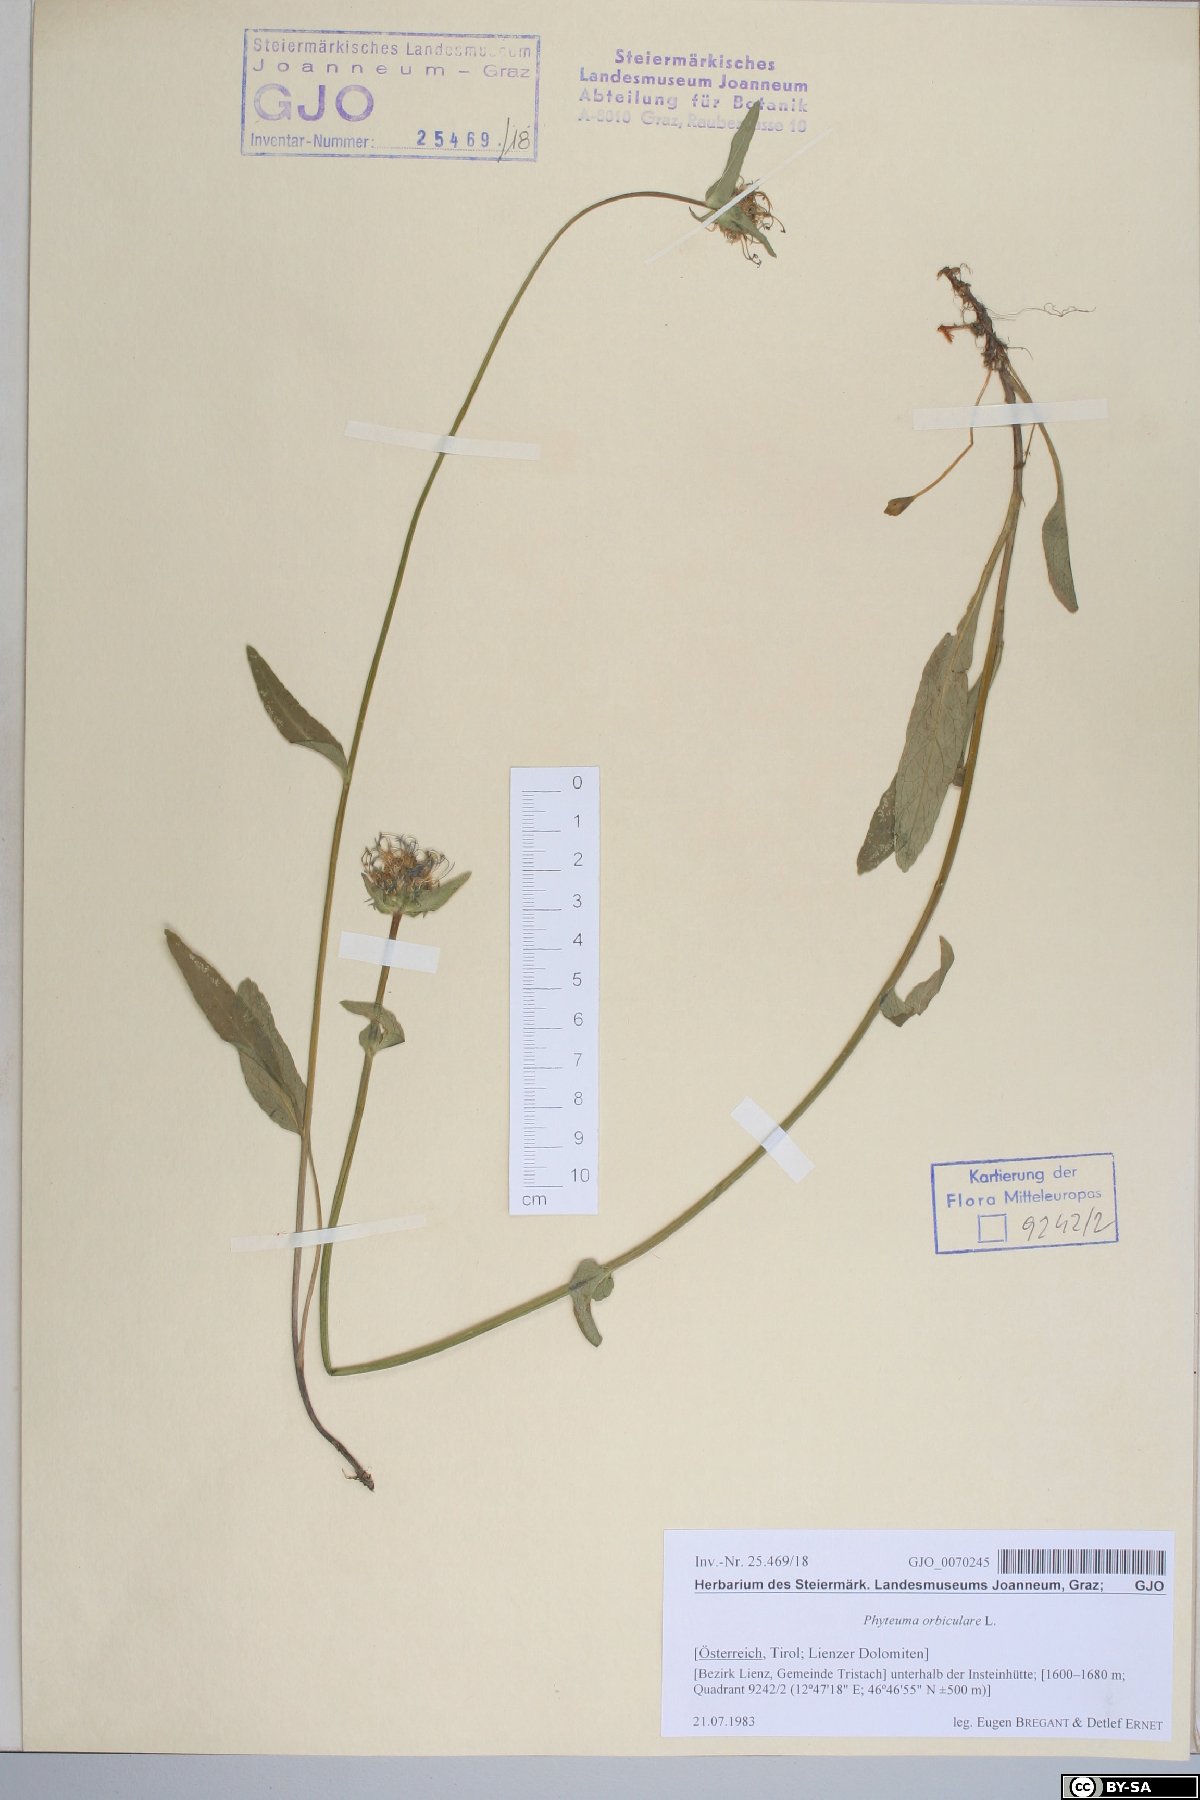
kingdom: Plantae
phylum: Tracheophyta
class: Magnoliopsida
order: Asterales
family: Campanulaceae
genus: Phyteuma
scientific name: Phyteuma orbiculare
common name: Round-headed rampion
